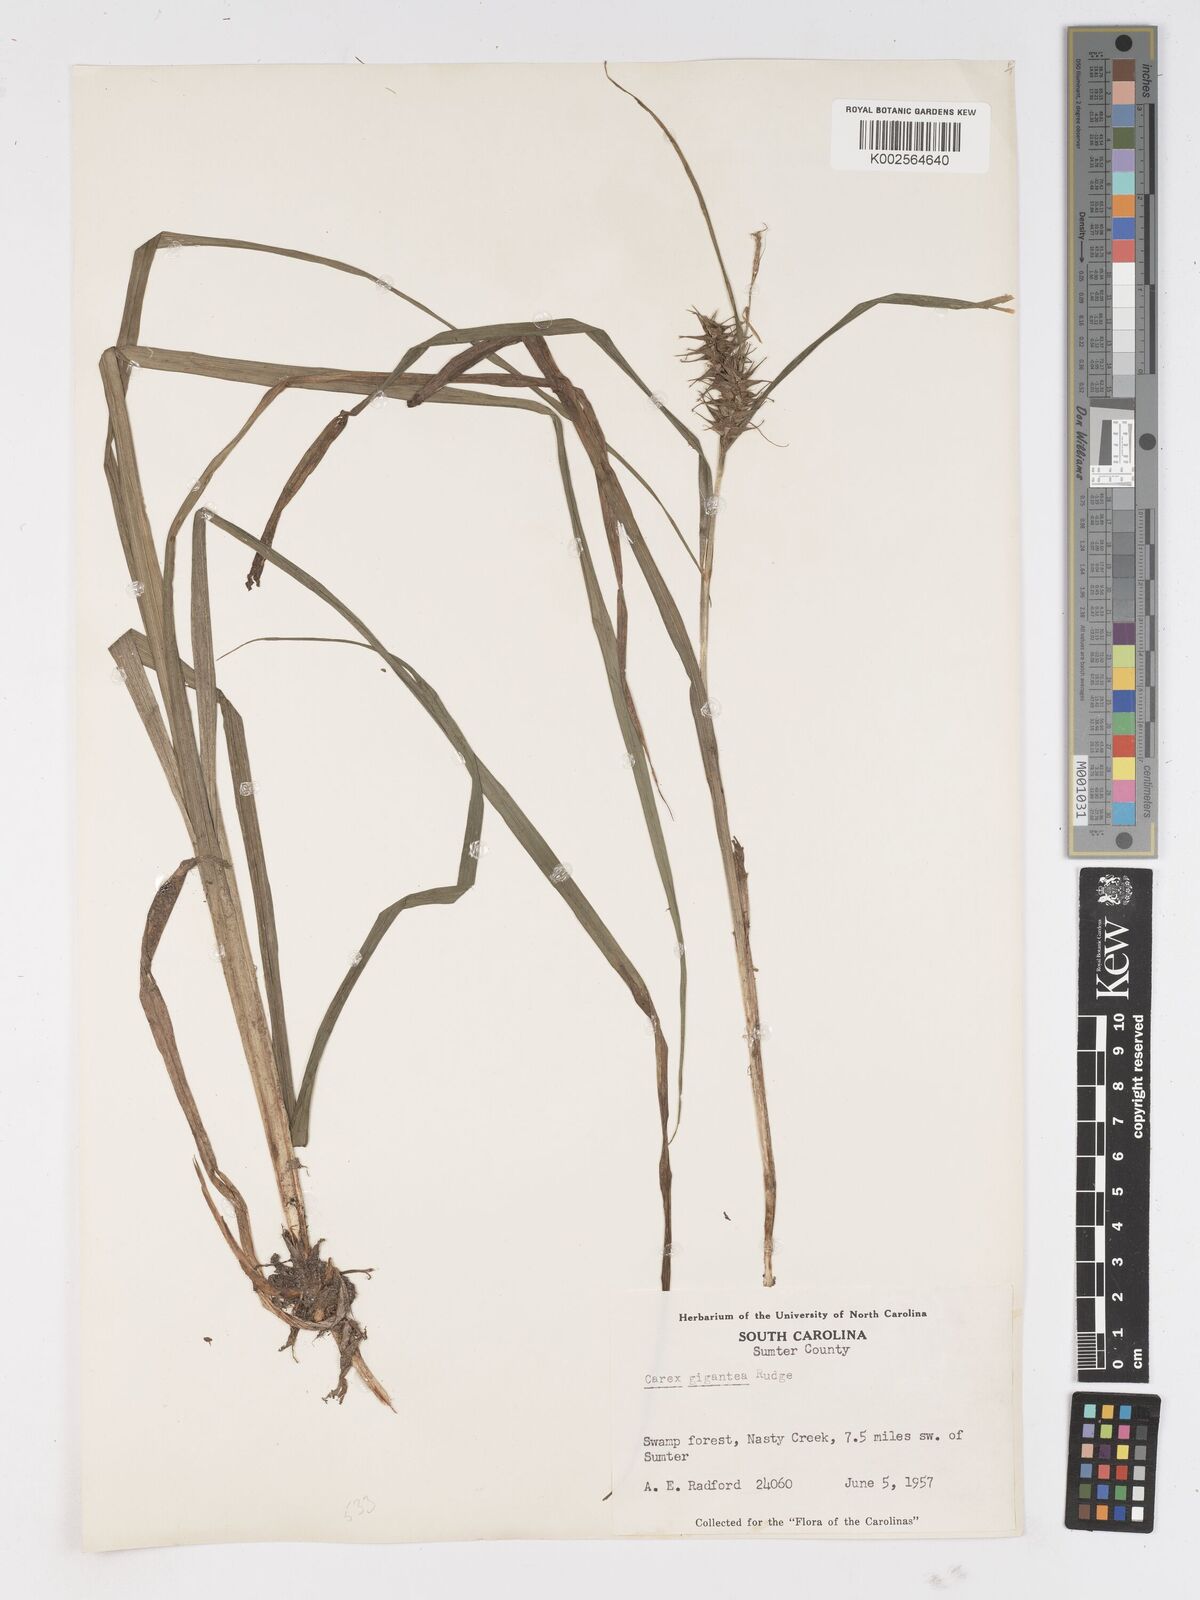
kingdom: Plantae
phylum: Tracheophyta
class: Liliopsida
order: Poales
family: Cyperaceae
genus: Carex
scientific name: Carex gigantea
